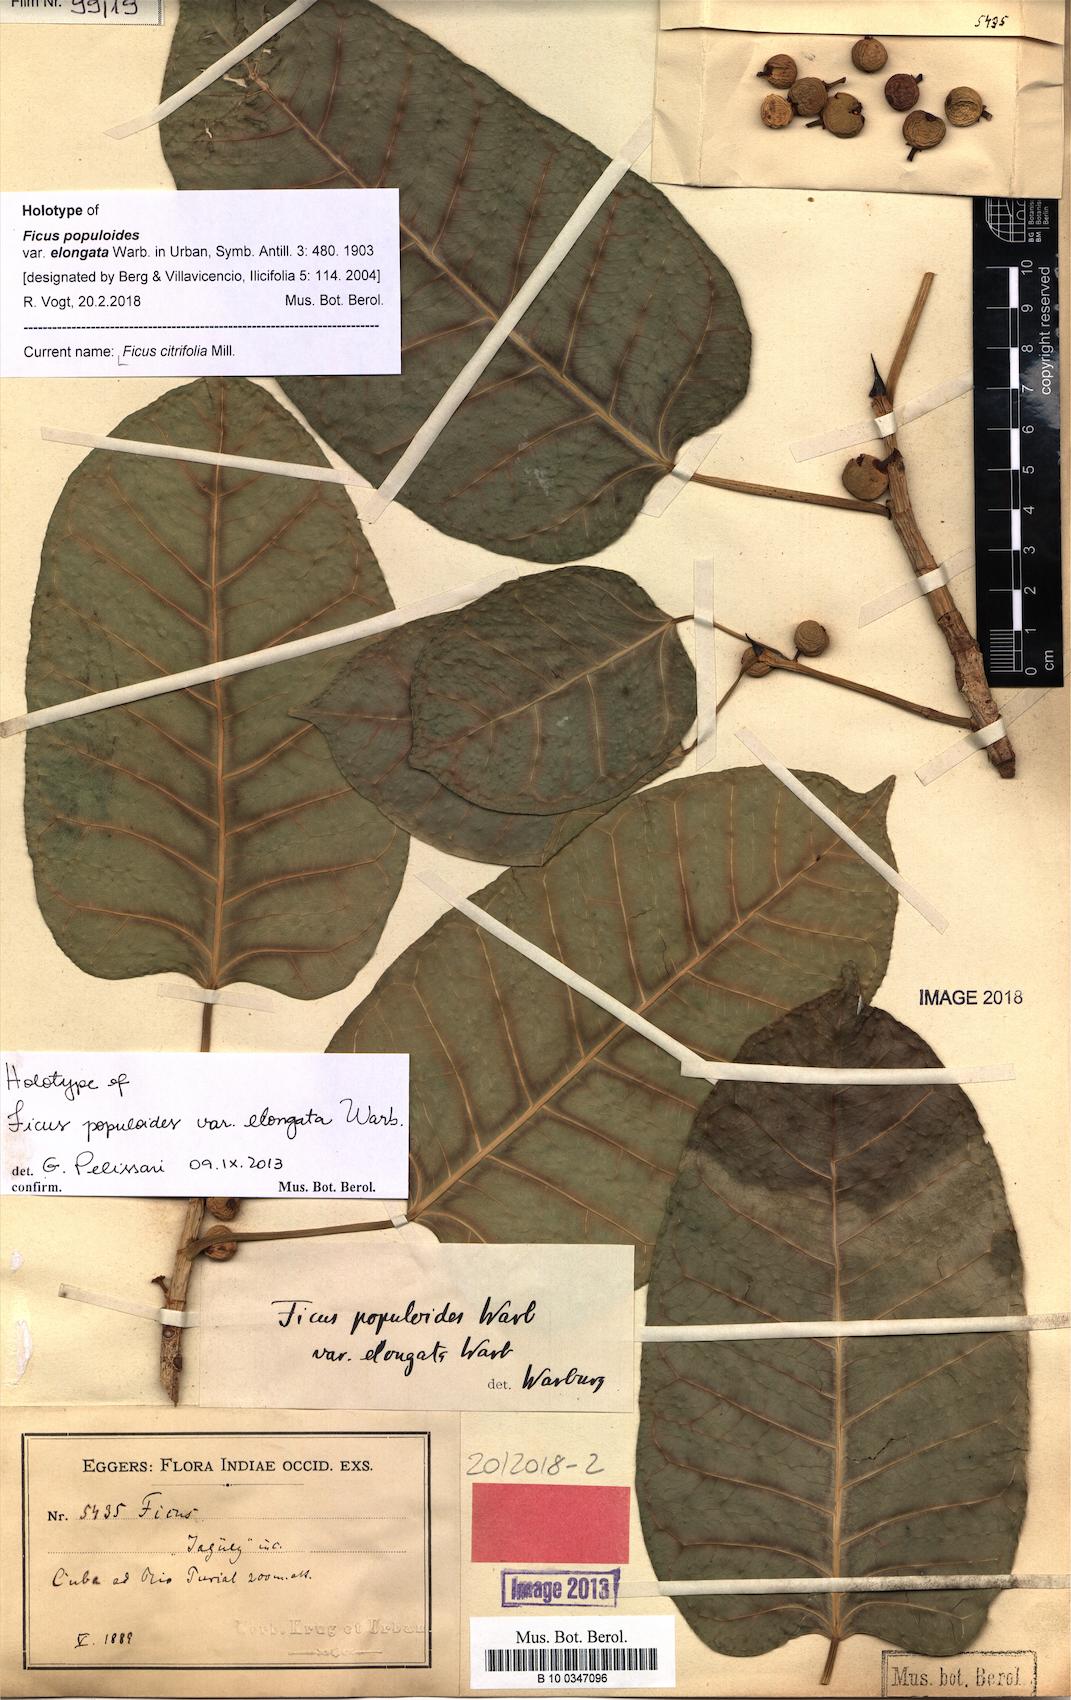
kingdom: Plantae
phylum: Tracheophyta
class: Magnoliopsida
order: Rosales
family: Moraceae
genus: Ficus
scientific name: Ficus citrifolia
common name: Strangler fig
